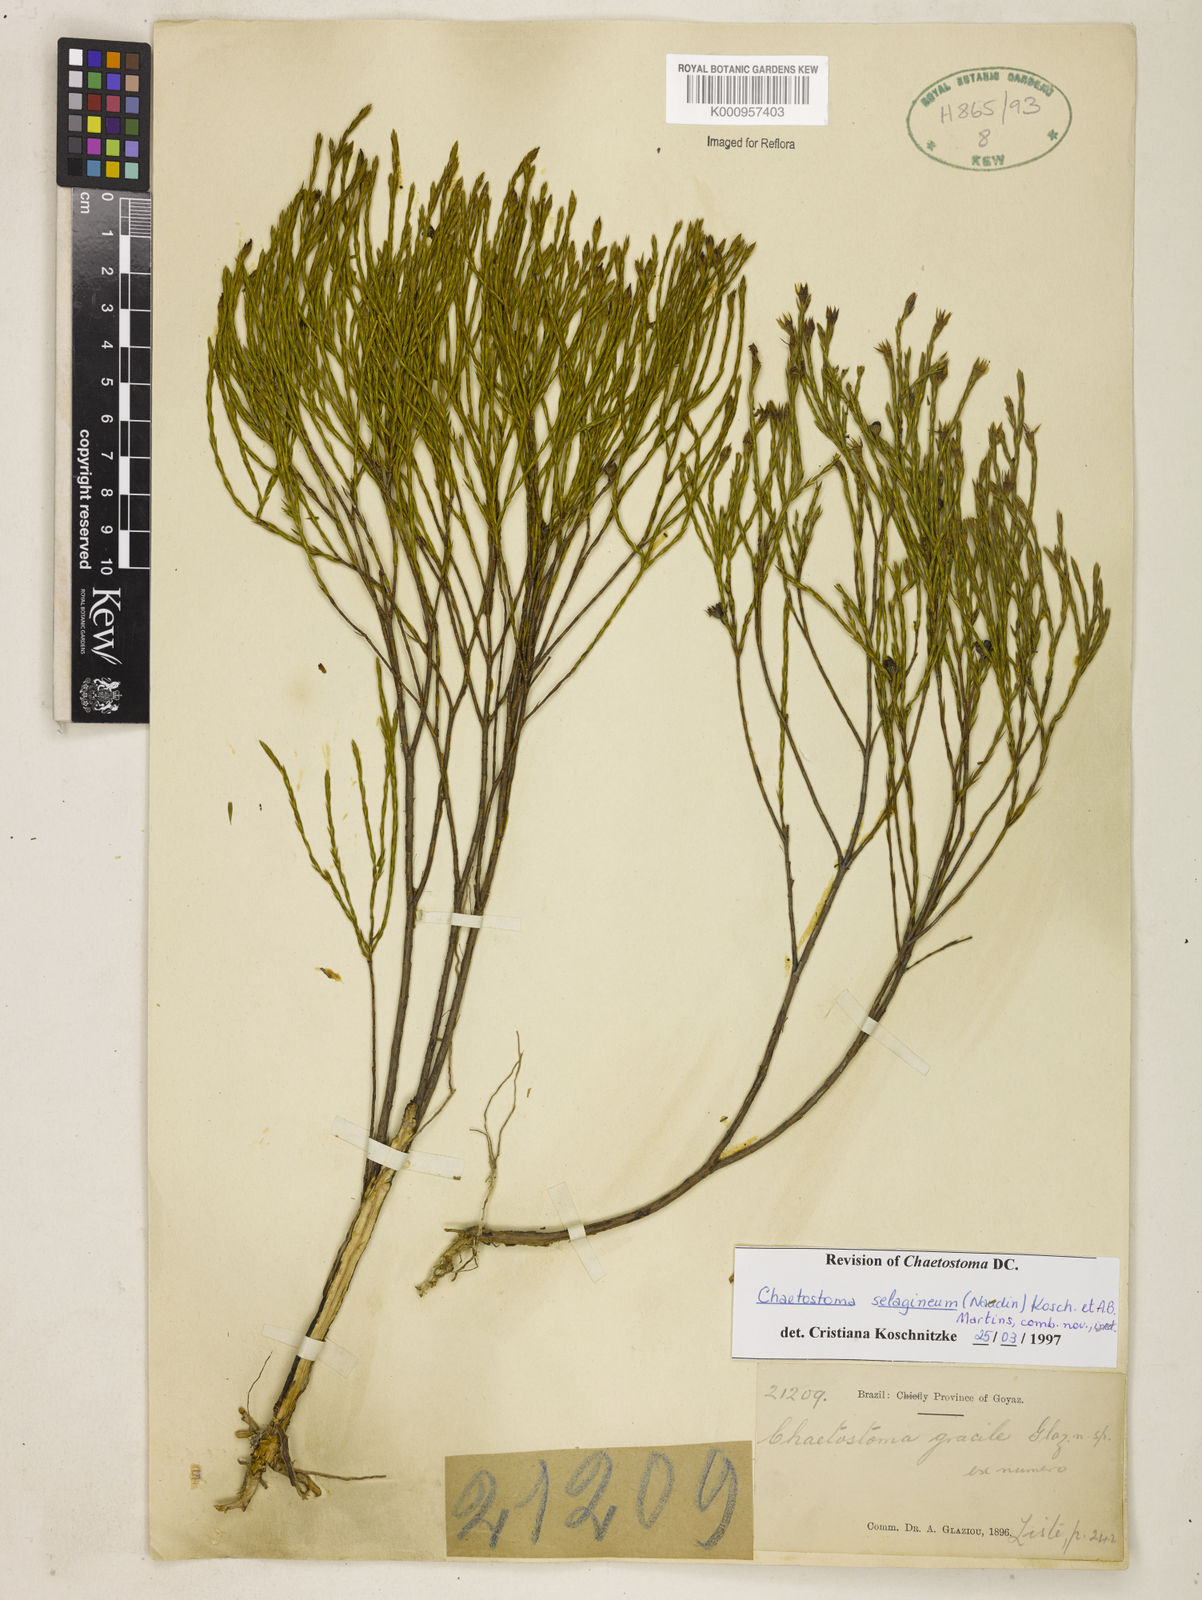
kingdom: Plantae
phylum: Tracheophyta
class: Magnoliopsida
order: Myrtales
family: Melastomataceae
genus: Microlicia
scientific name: Microlicia
